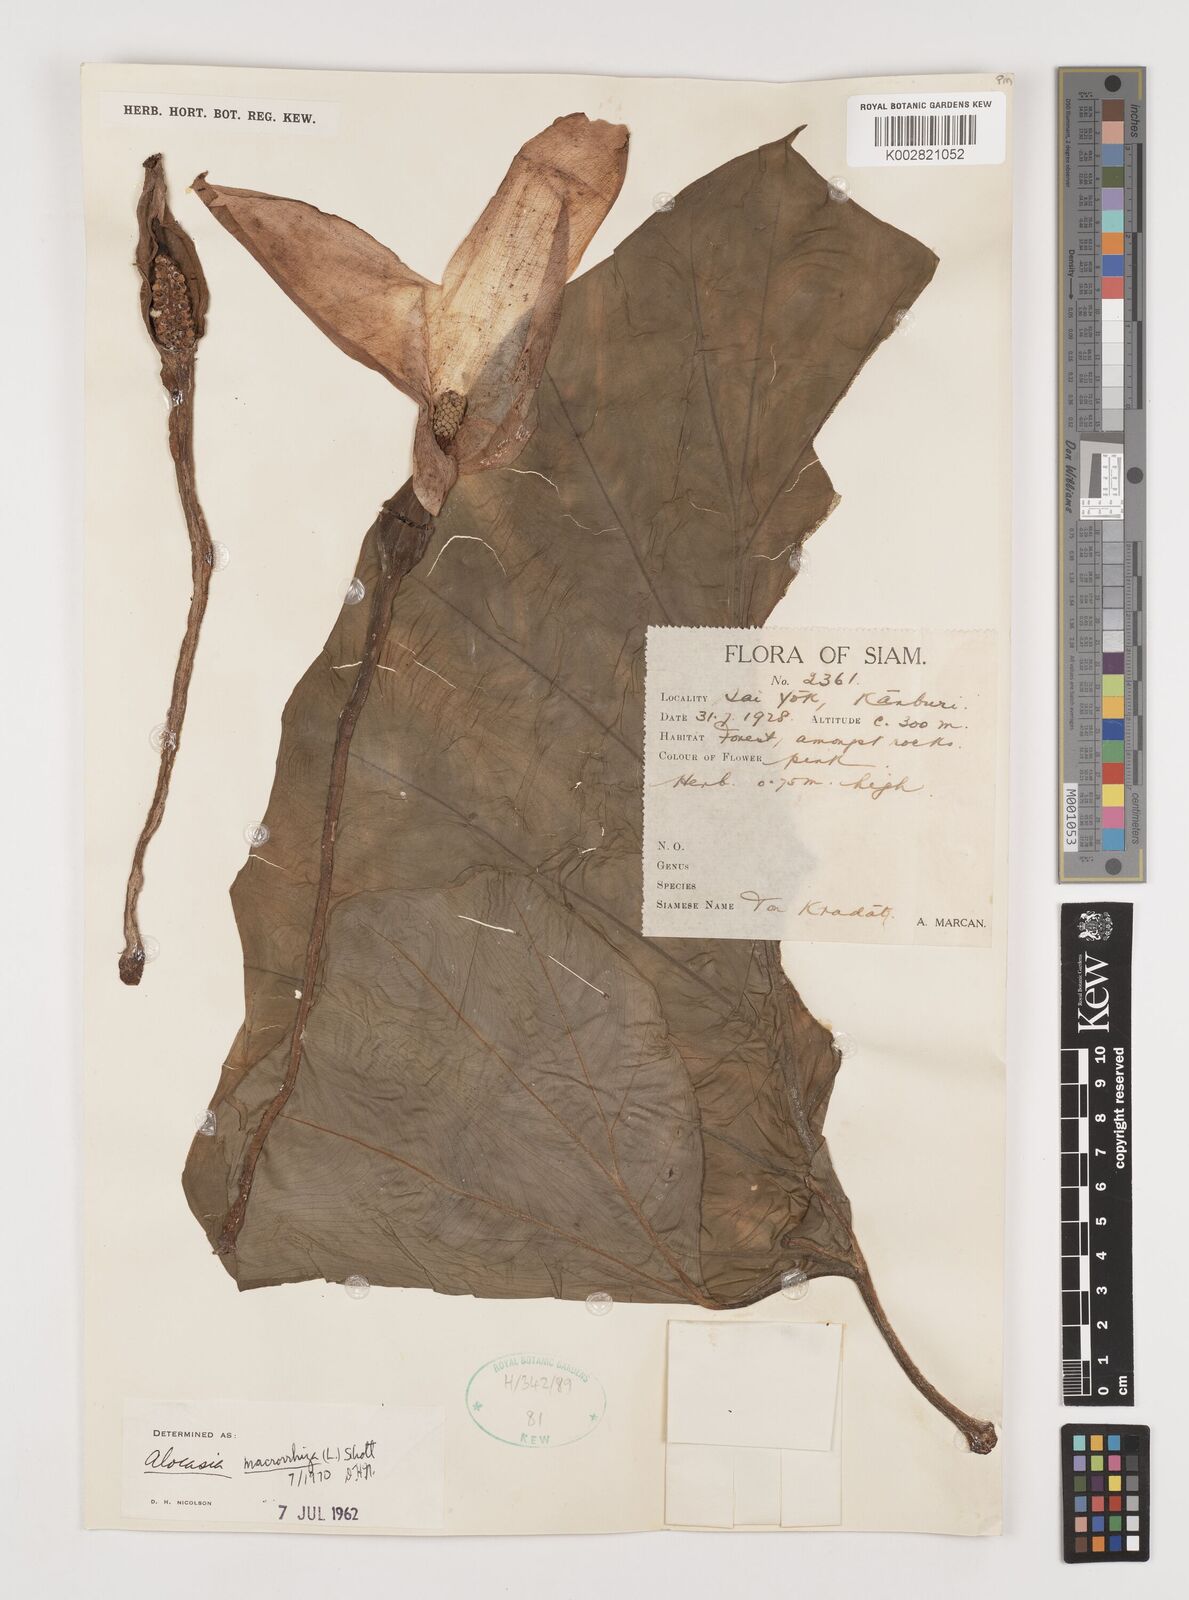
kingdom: Plantae
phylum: Tracheophyta
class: Liliopsida
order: Alismatales
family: Araceae
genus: Alocasia
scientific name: Alocasia macrorrhizos
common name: Giant taro
